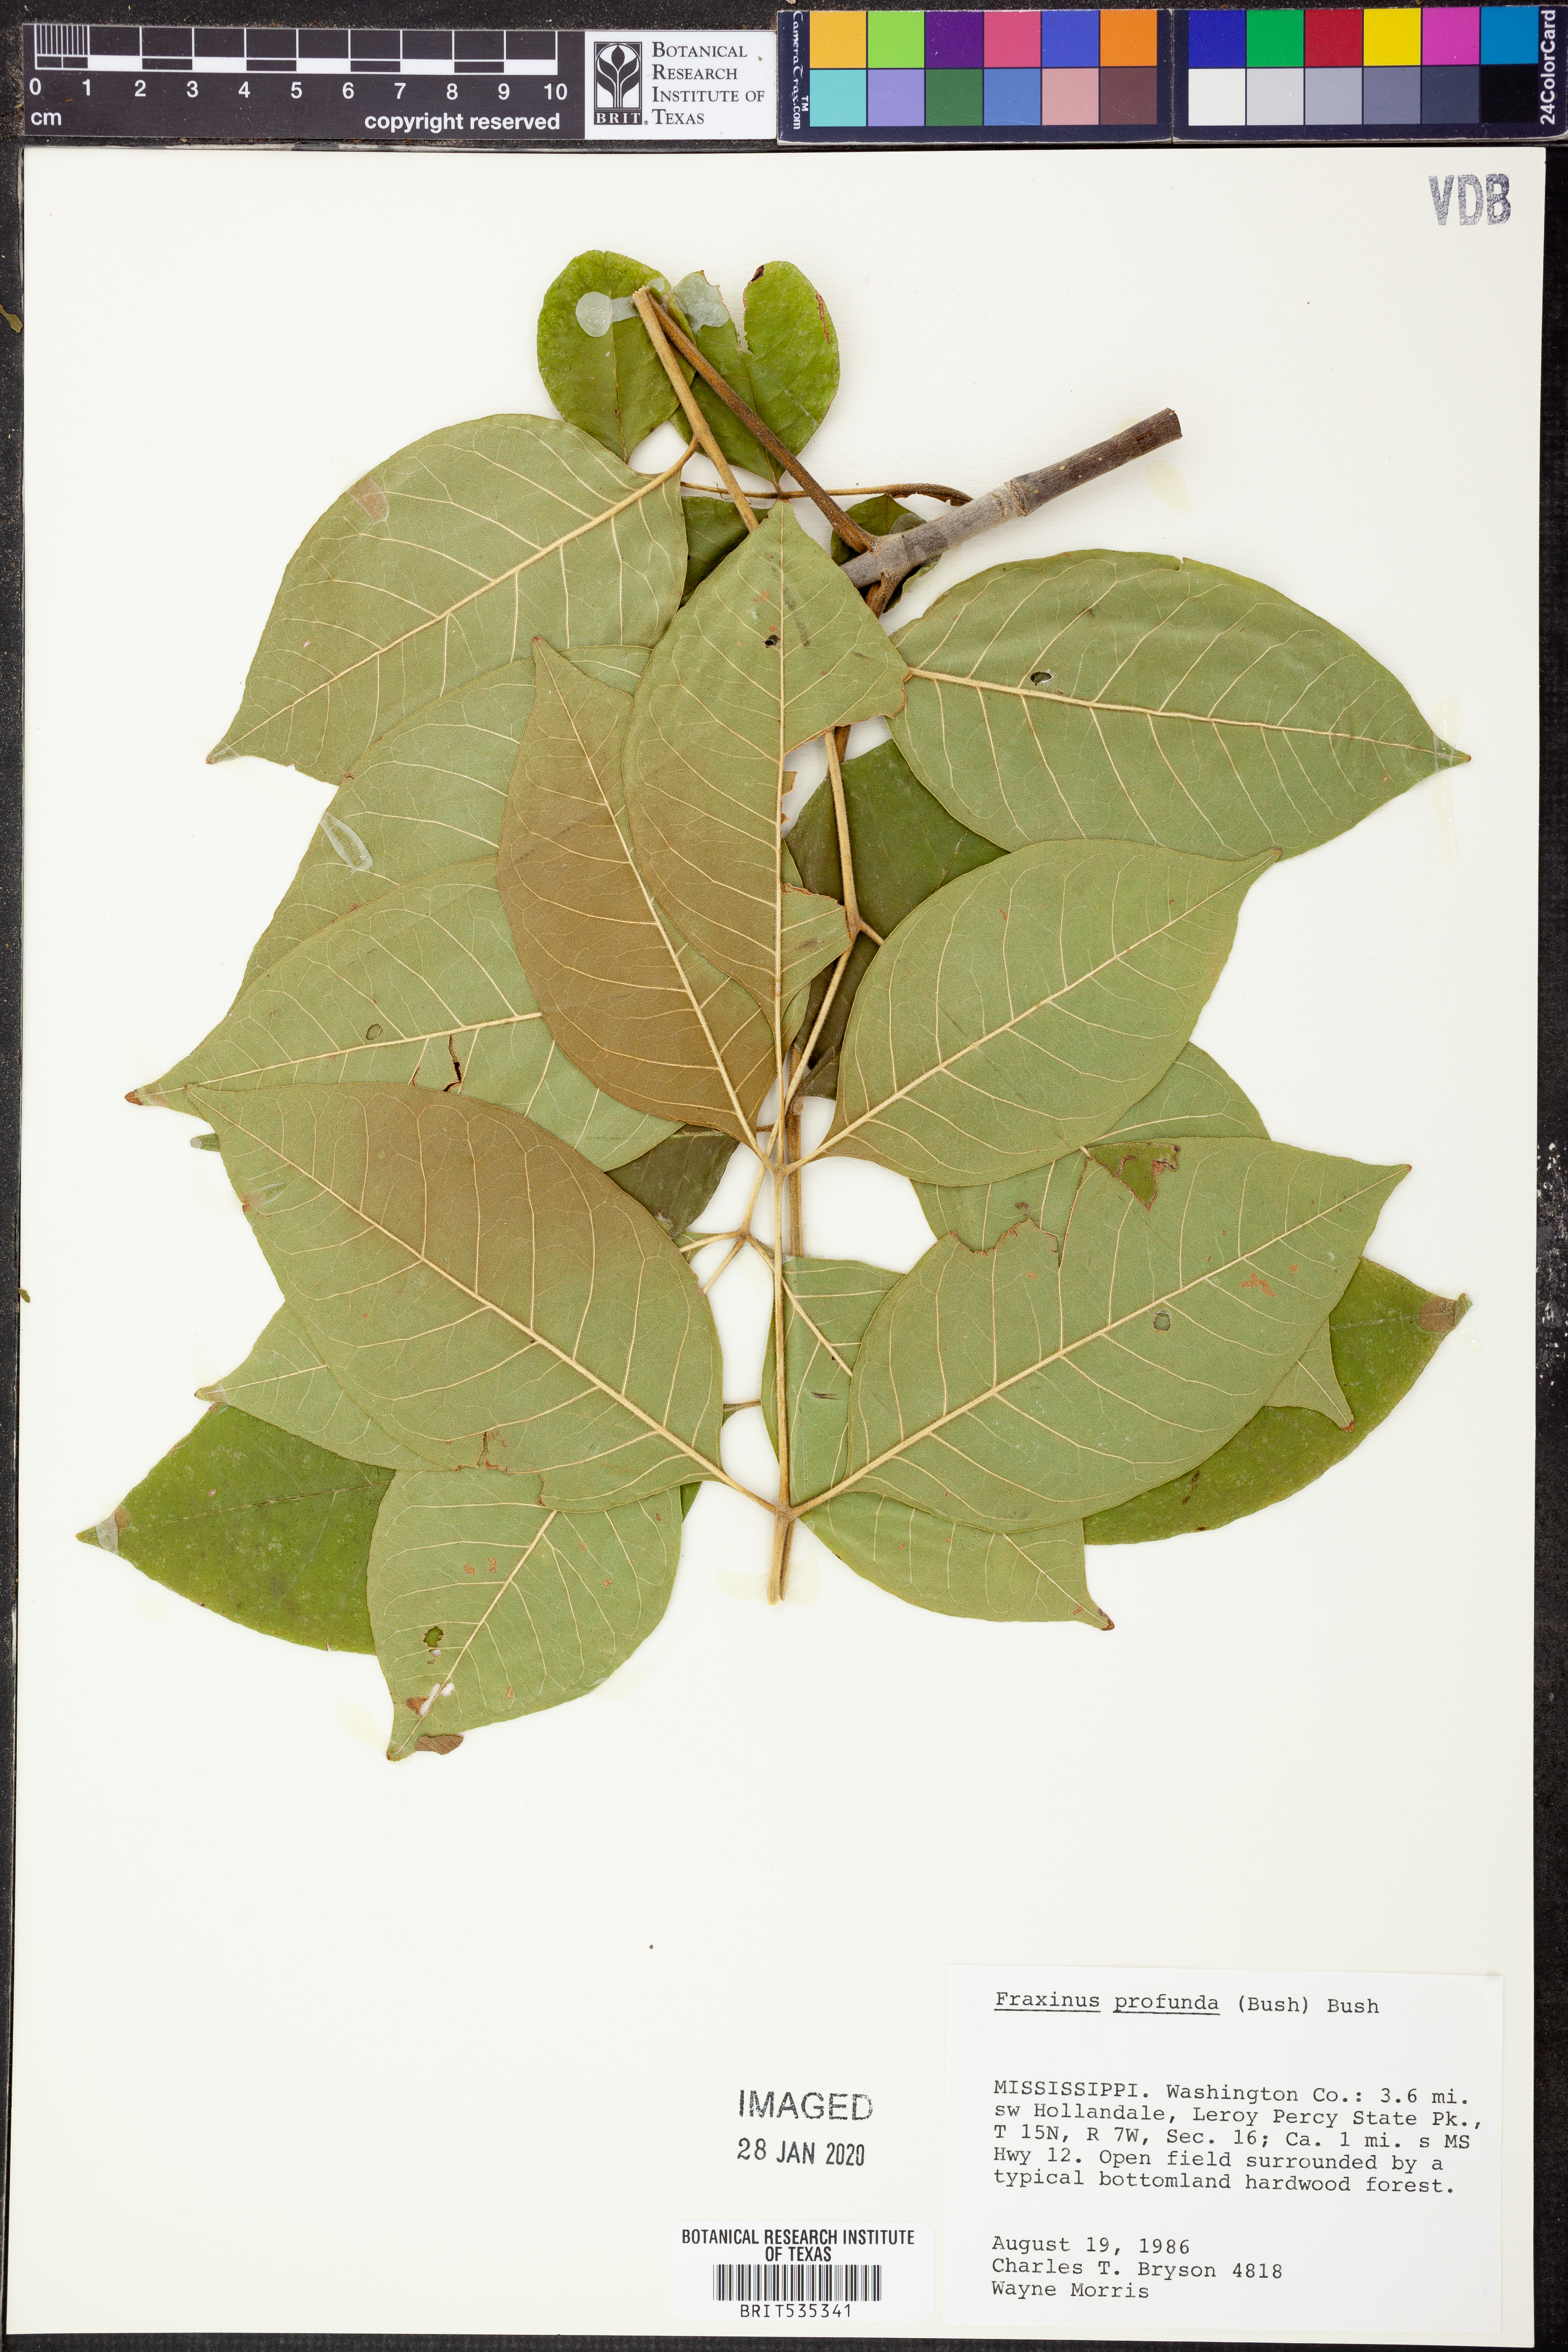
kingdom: Plantae
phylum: Tracheophyta
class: Magnoliopsida
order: Lamiales
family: Oleaceae
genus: Fraxinus
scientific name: Fraxinus profunda
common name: Pumpkin ash
